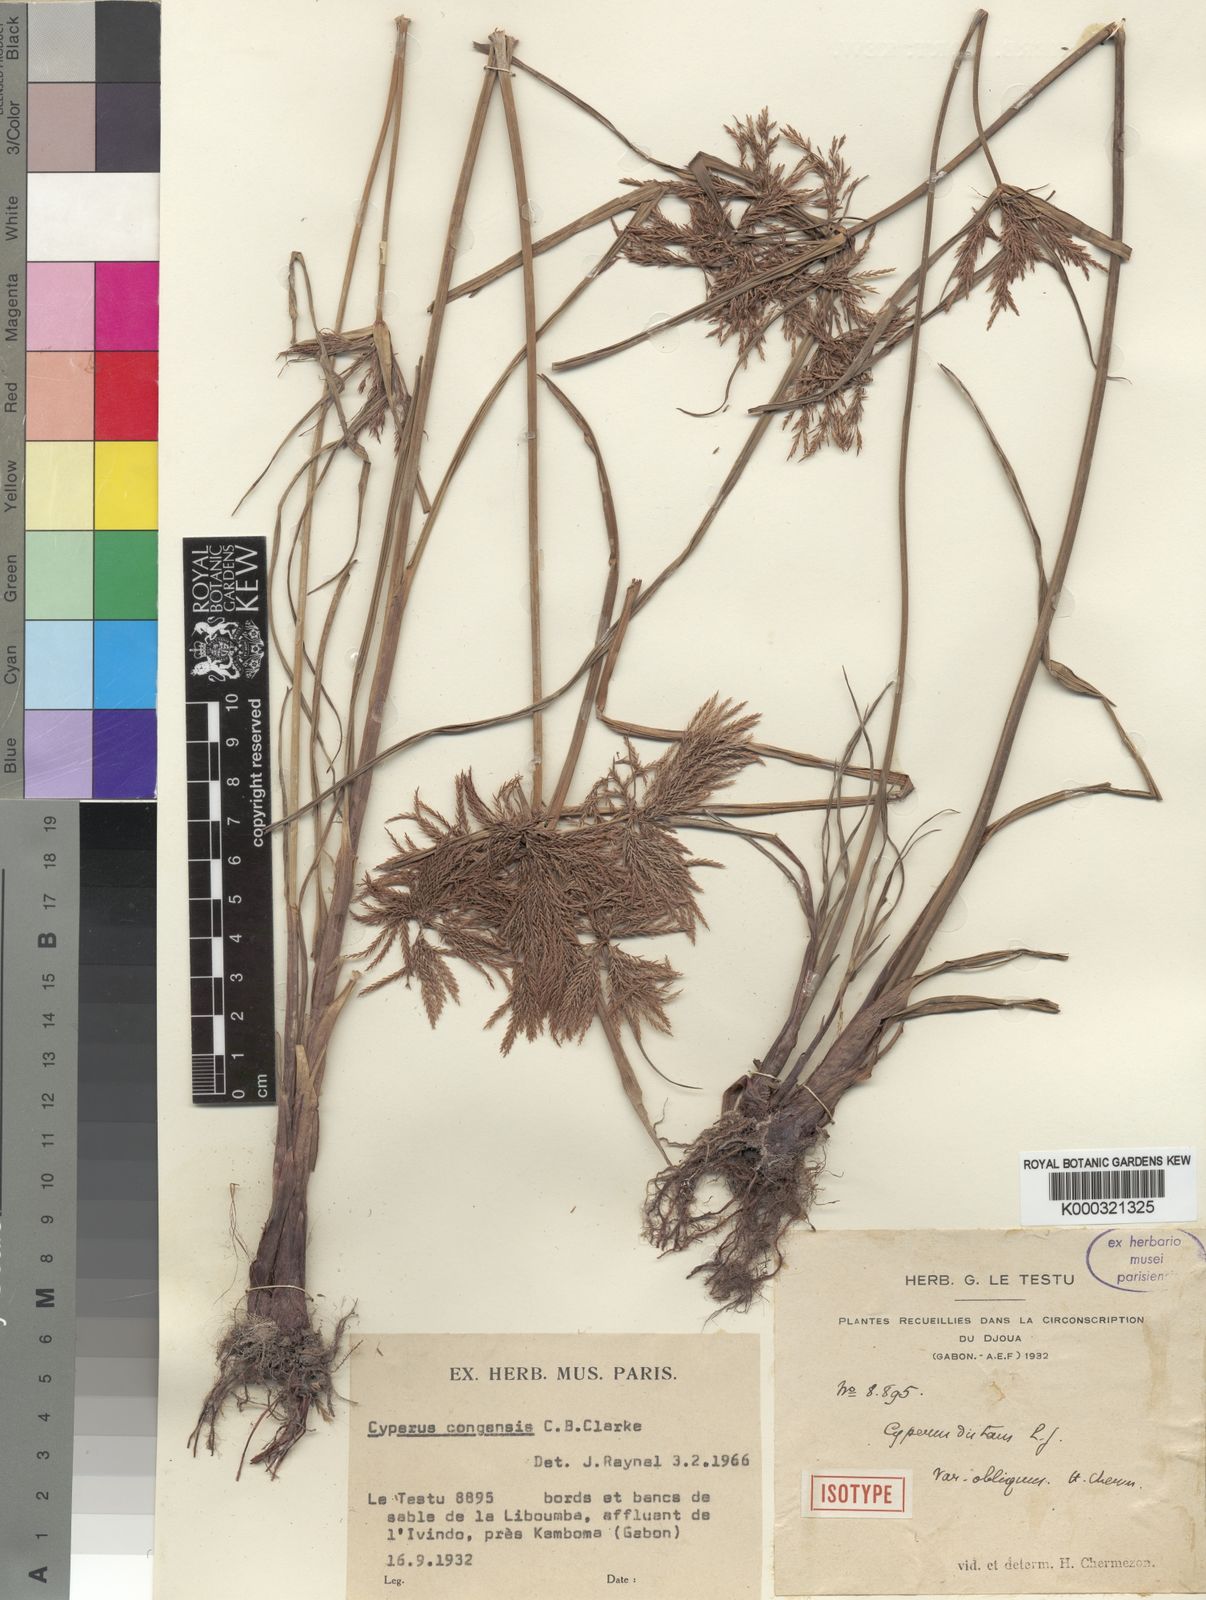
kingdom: Plantae
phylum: Tracheophyta
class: Liliopsida
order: Poales
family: Cyperaceae
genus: Cyperus
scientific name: Cyperus congensis
